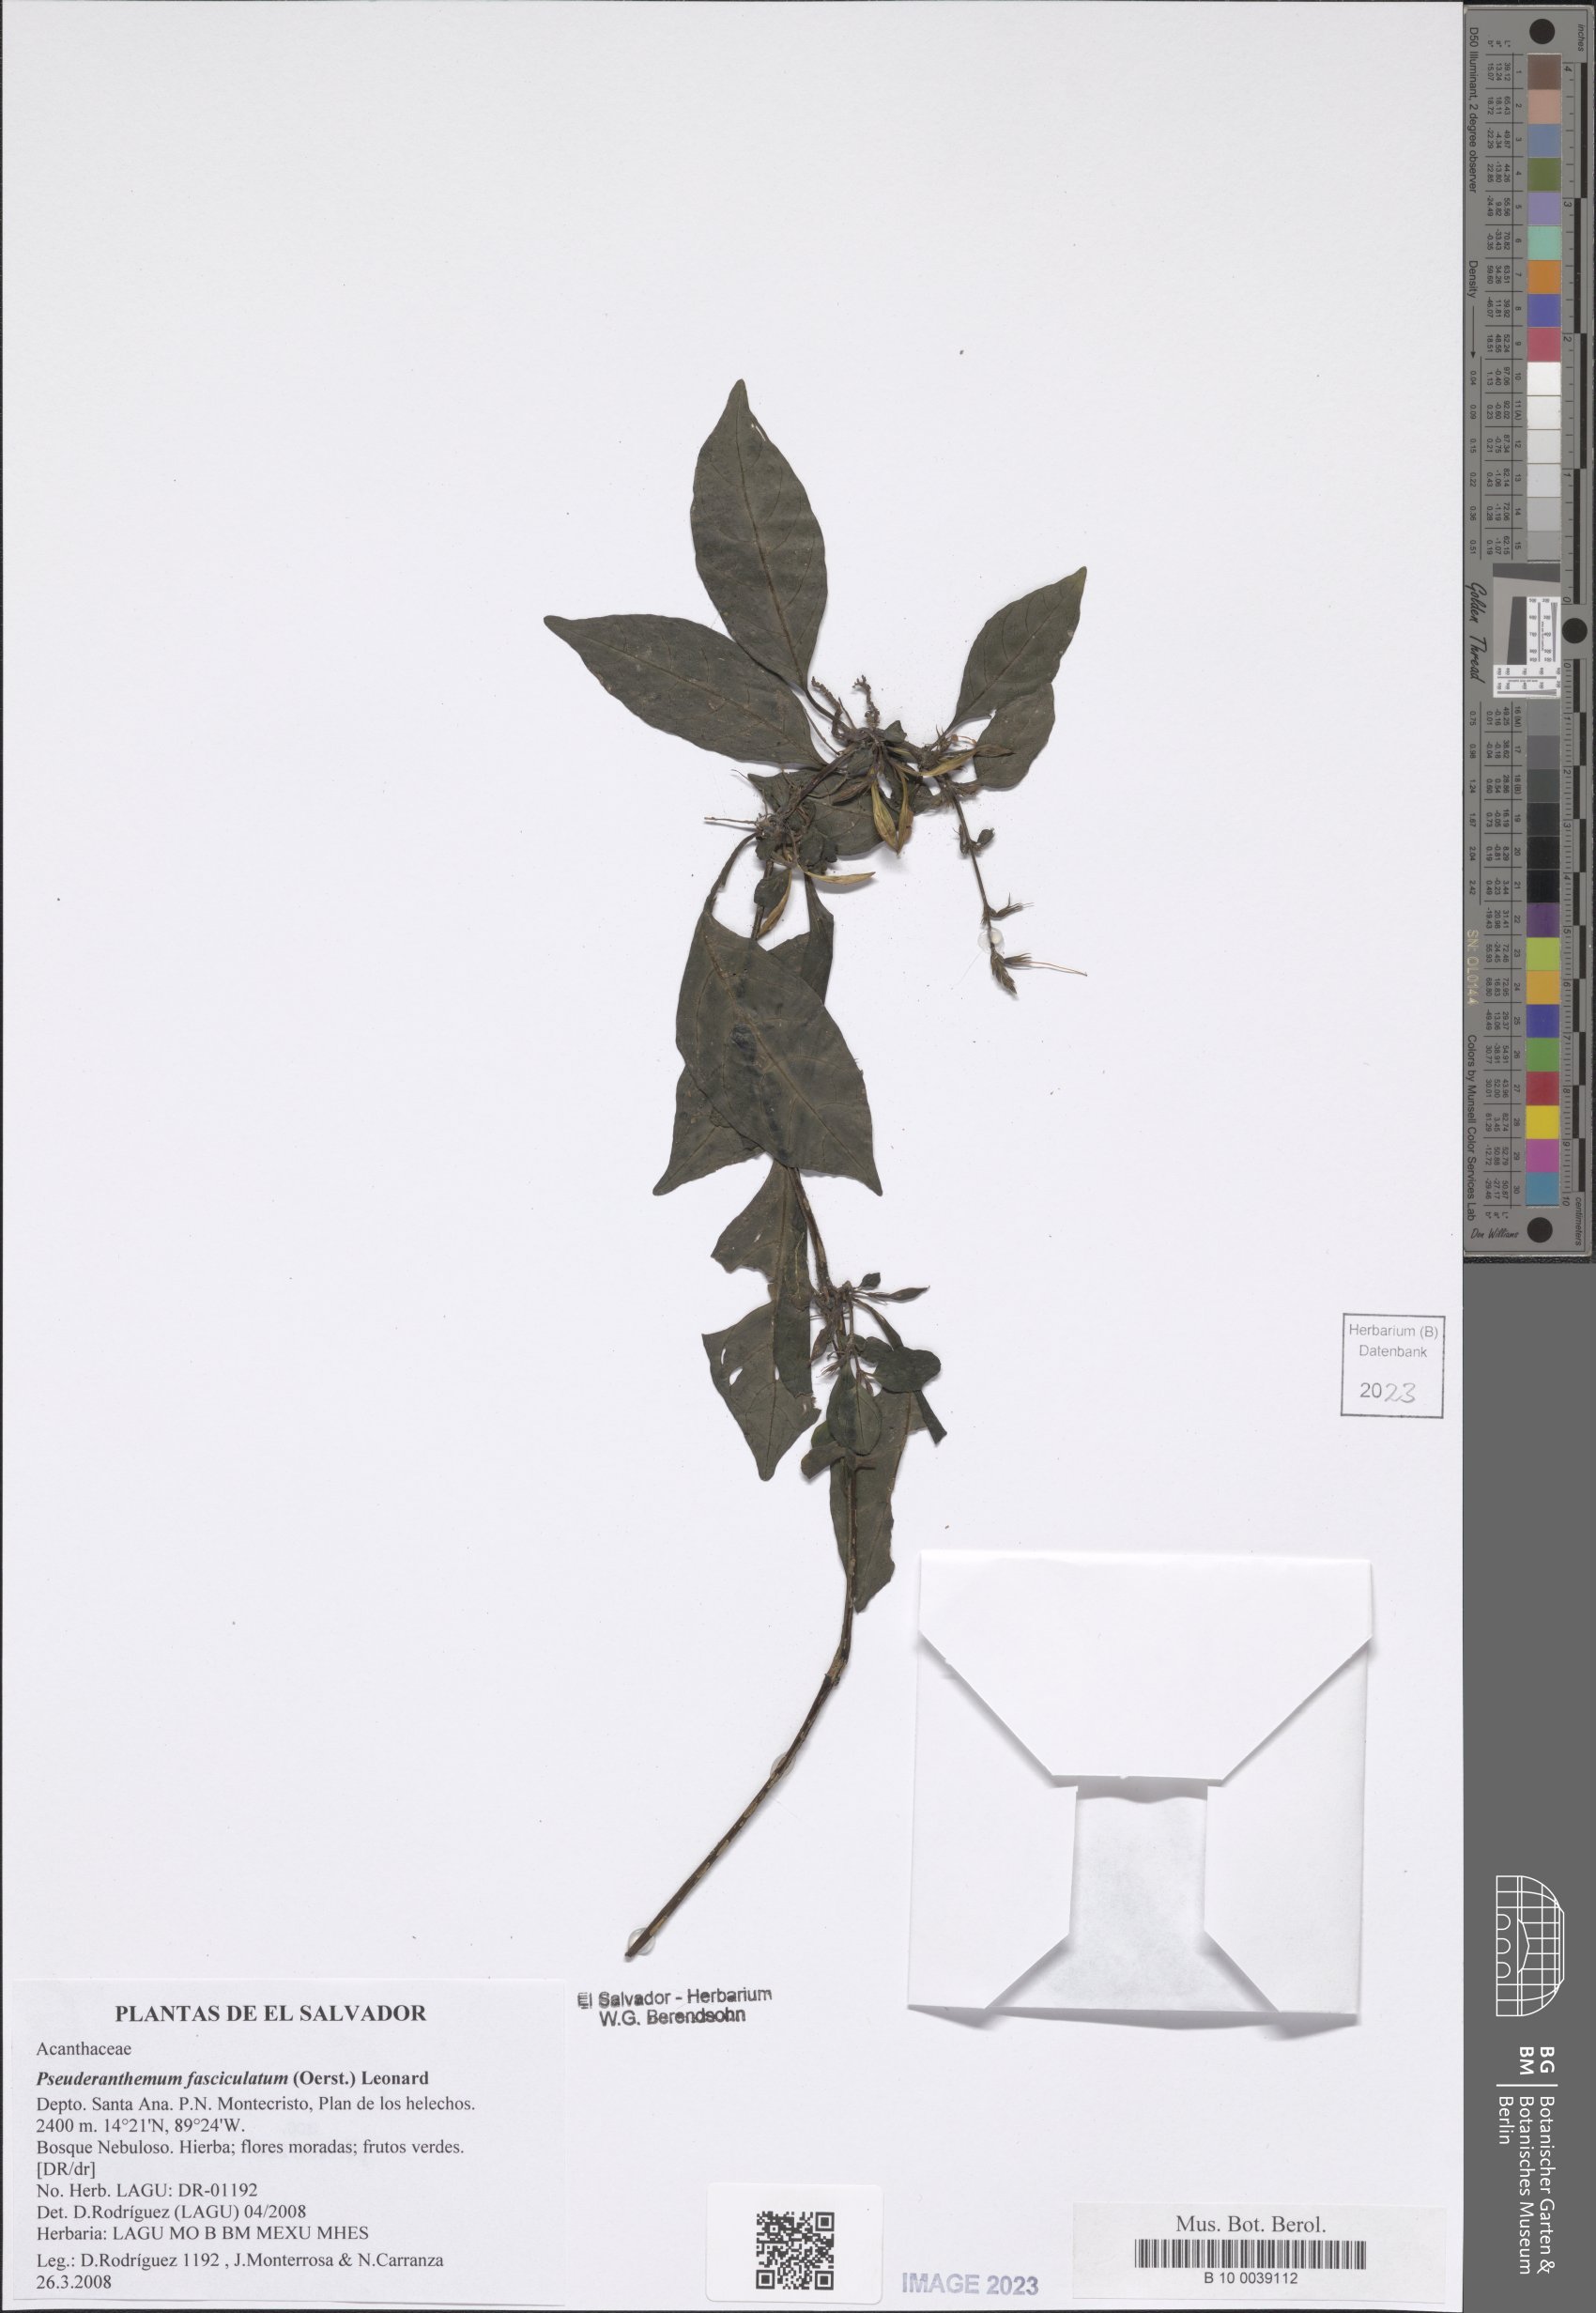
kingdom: Plantae
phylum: Tracheophyta
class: Magnoliopsida
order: Lamiales
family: Acanthaceae
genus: Pseuderanthemum
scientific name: Pseuderanthemum fasciculatum
